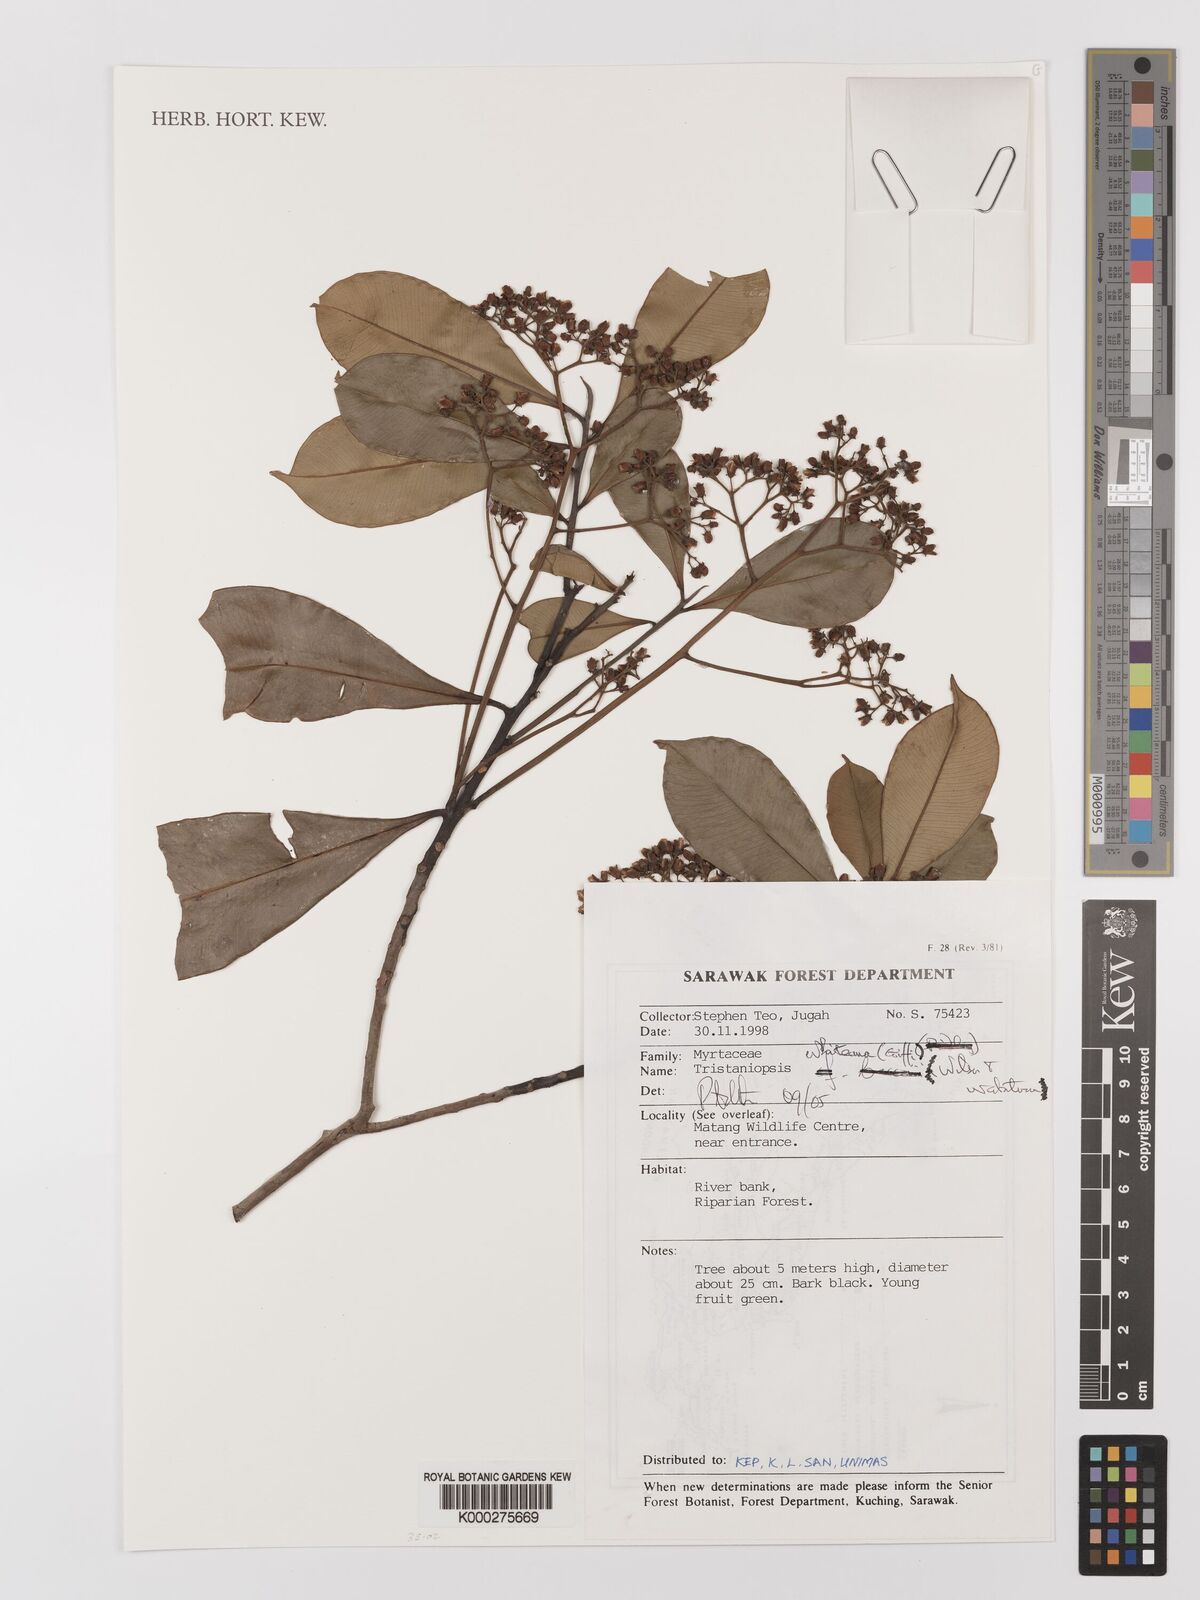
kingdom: Plantae
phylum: Tracheophyta
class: Magnoliopsida
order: Myrtales
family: Myrtaceae
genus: Tristaniopsis
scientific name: Tristaniopsis whiteana
